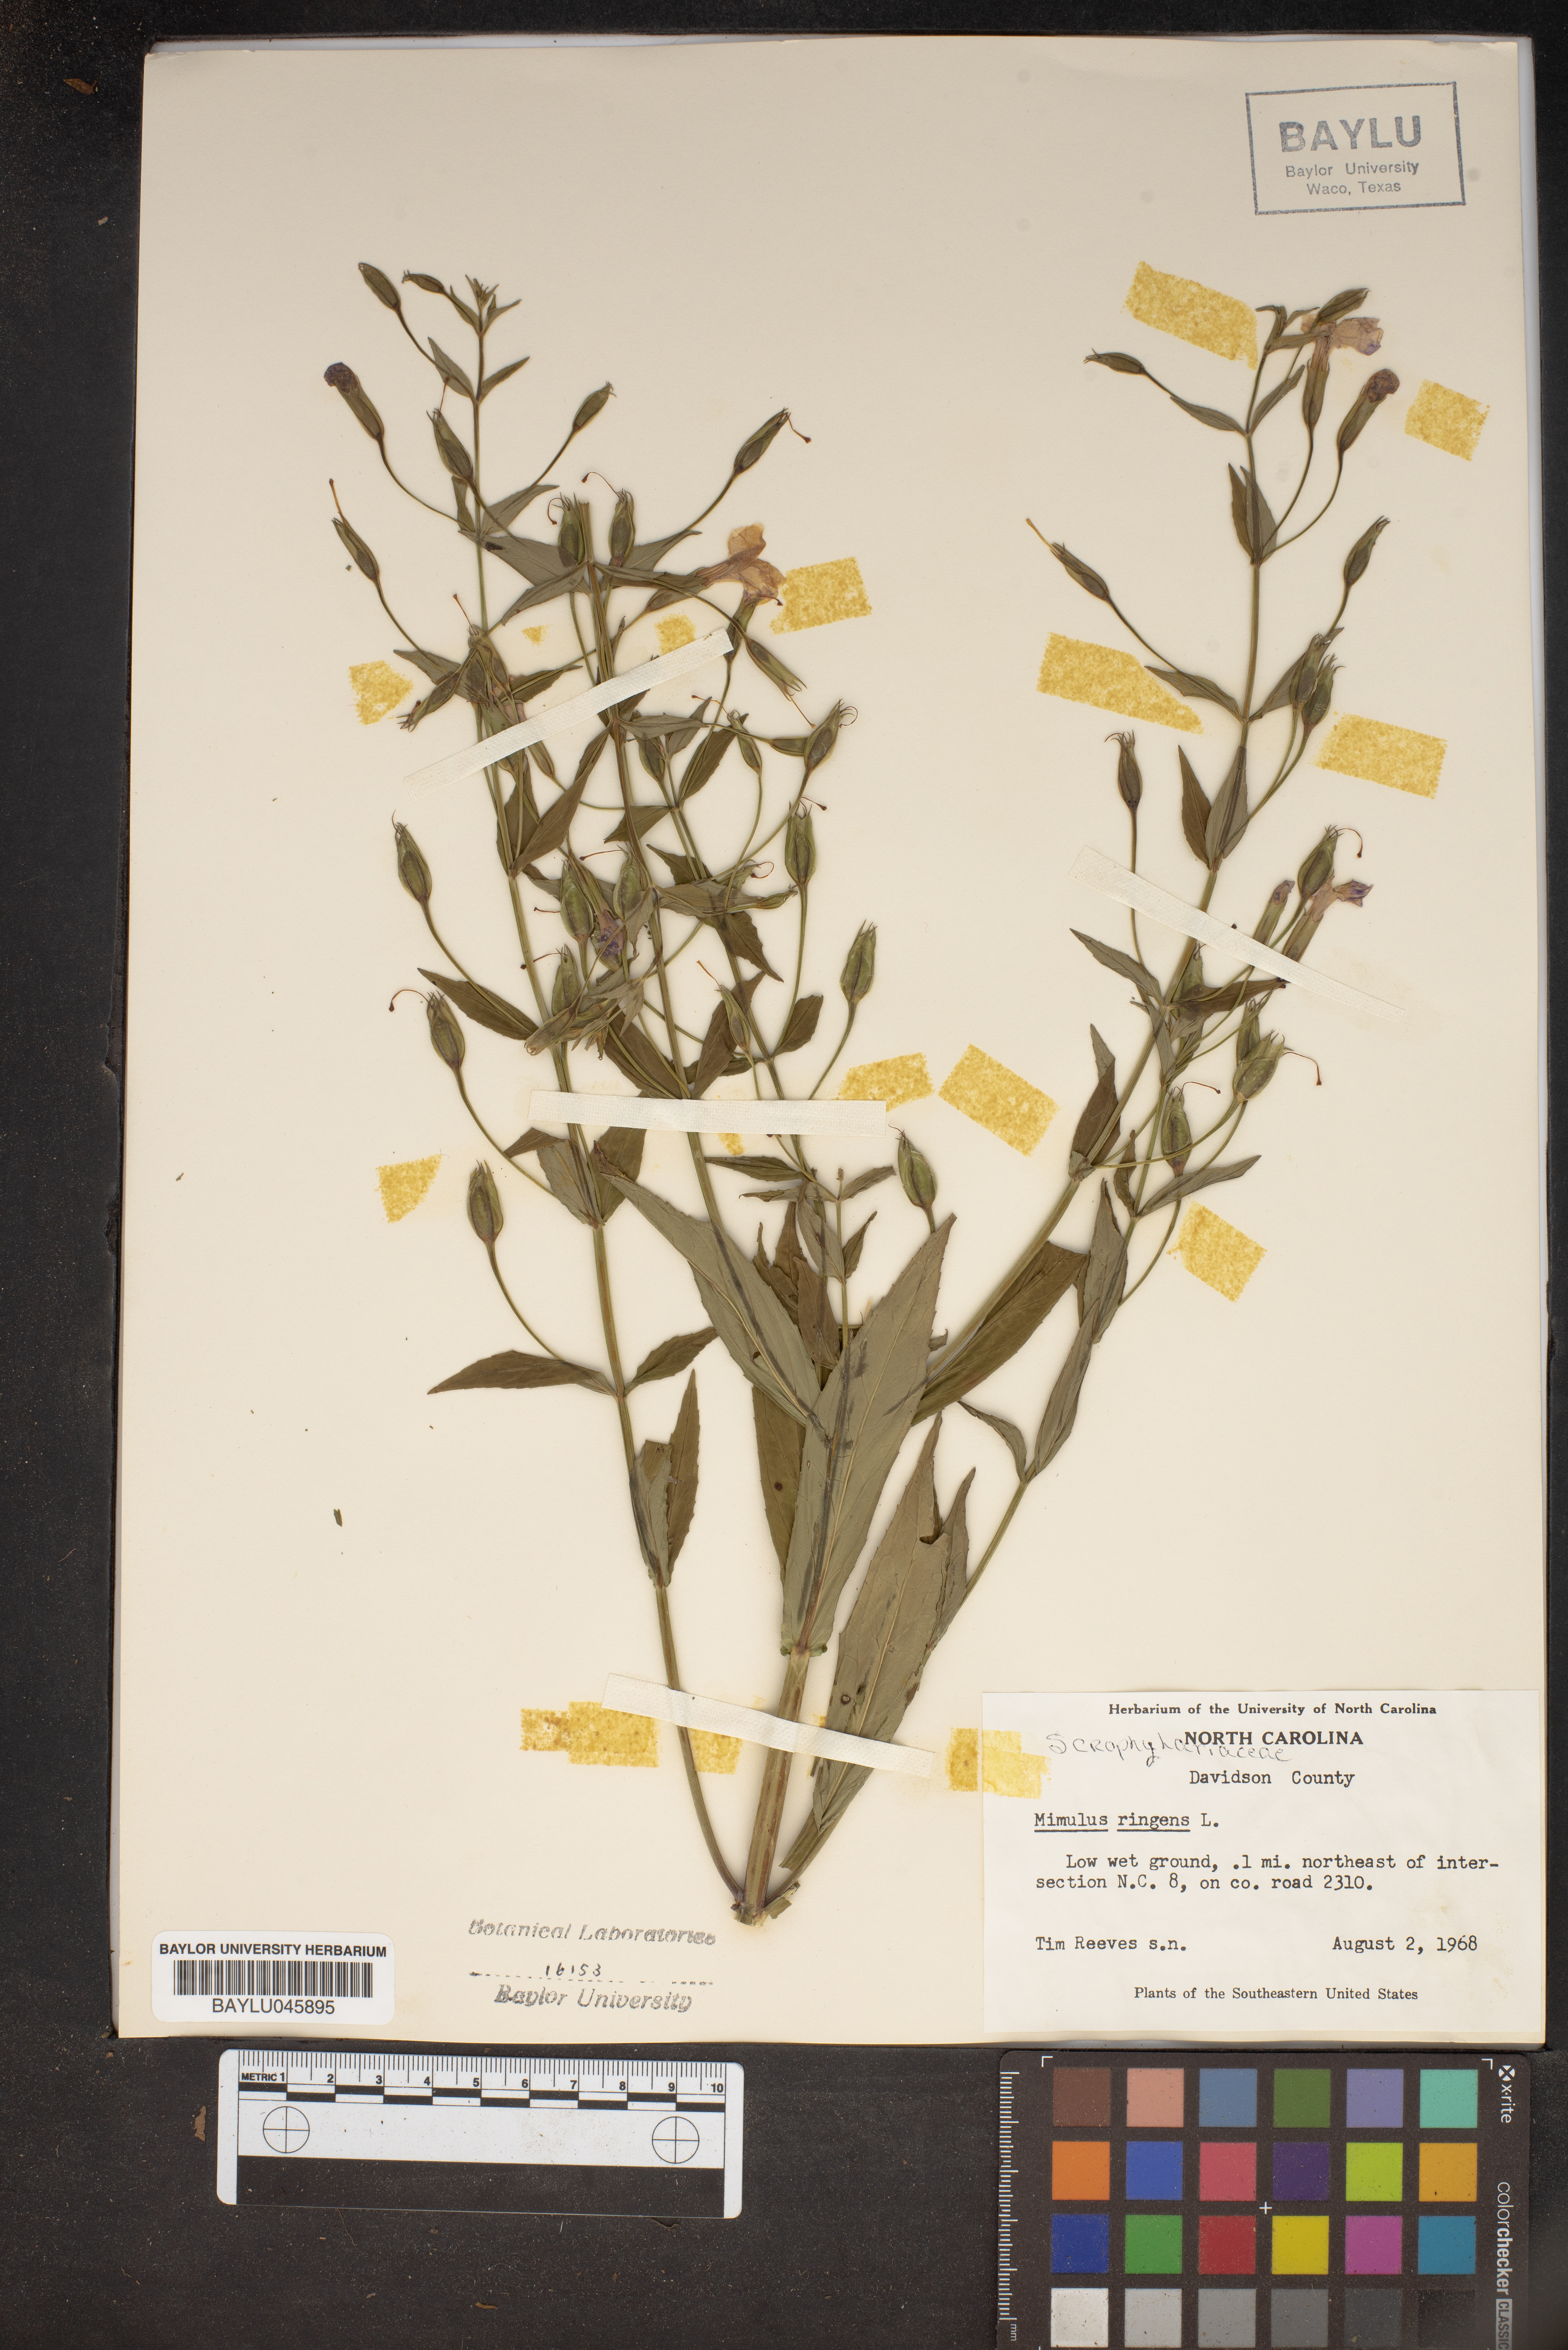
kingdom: Plantae
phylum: Tracheophyta
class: Magnoliopsida
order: Lamiales
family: Phrymaceae
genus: Mimulus
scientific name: Mimulus ringens
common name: Allegheny monkeyflower
